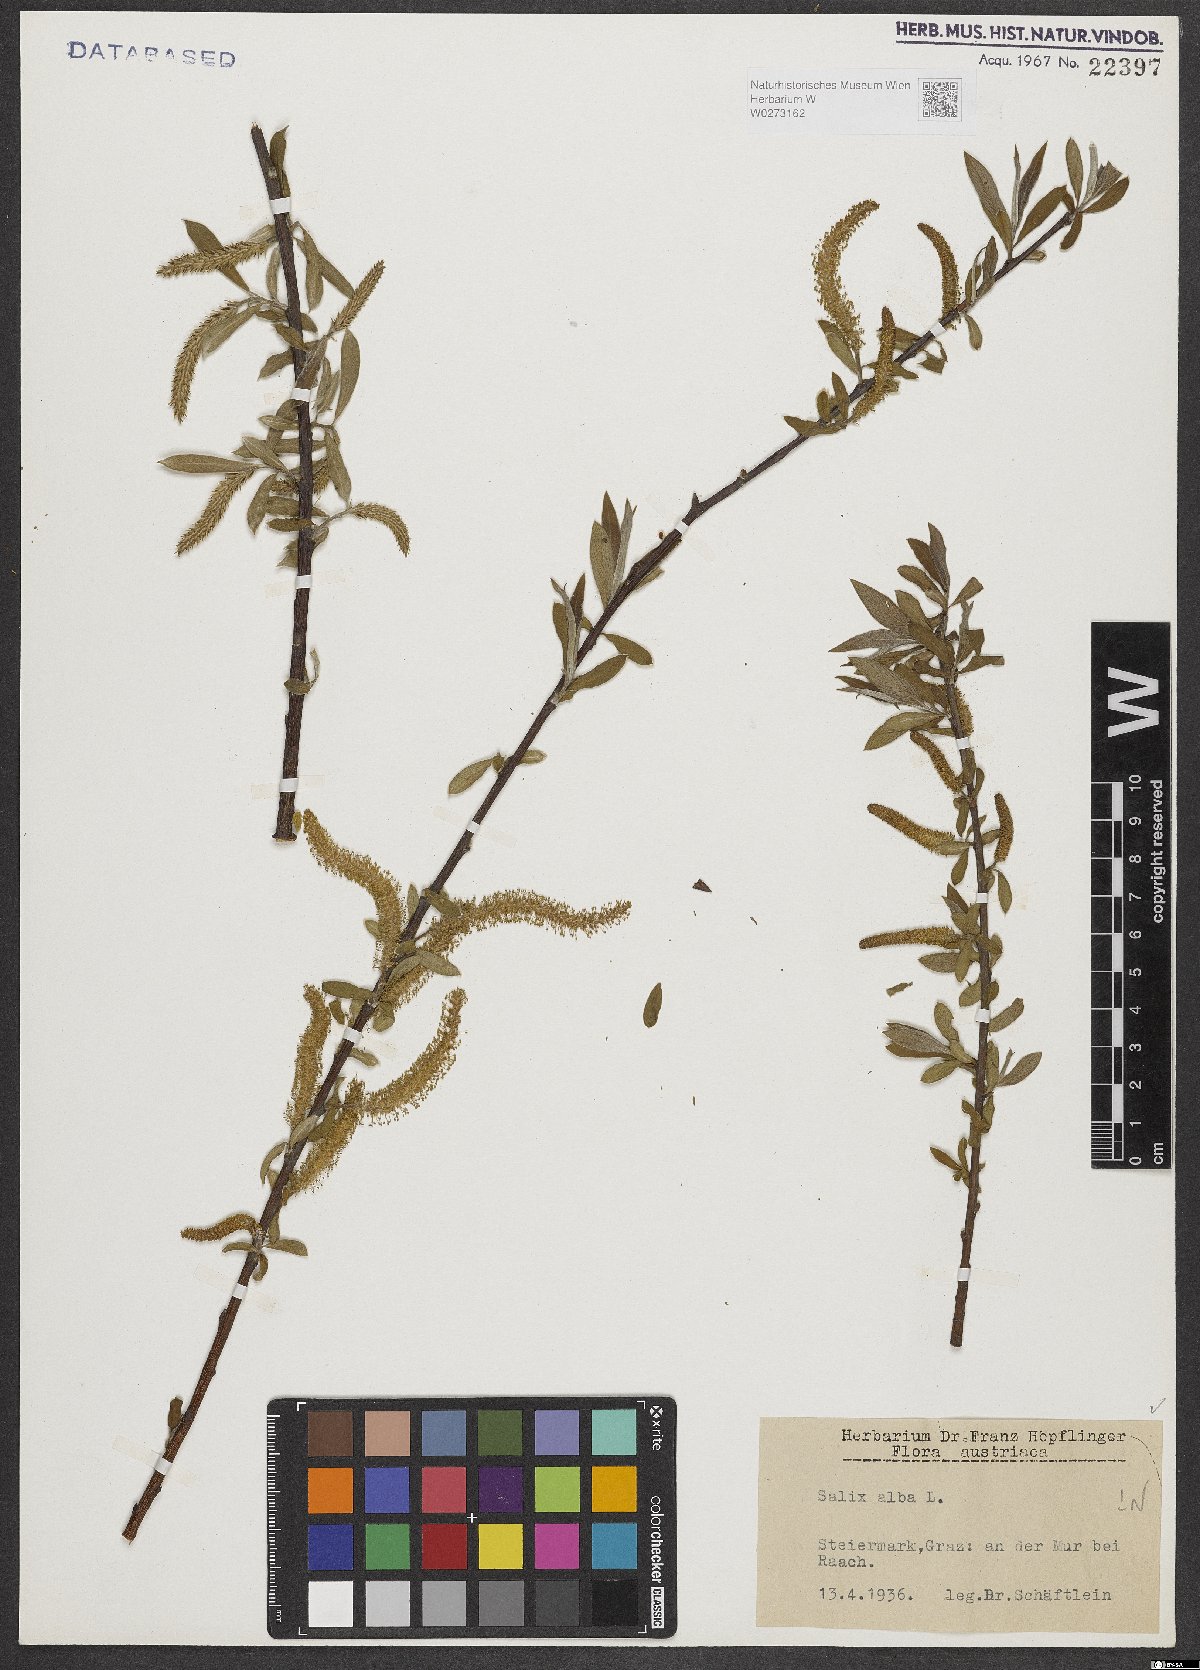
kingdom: Plantae
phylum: Tracheophyta
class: Magnoliopsida
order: Malpighiales
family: Salicaceae
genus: Salix
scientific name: Salix alba
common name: White willow
